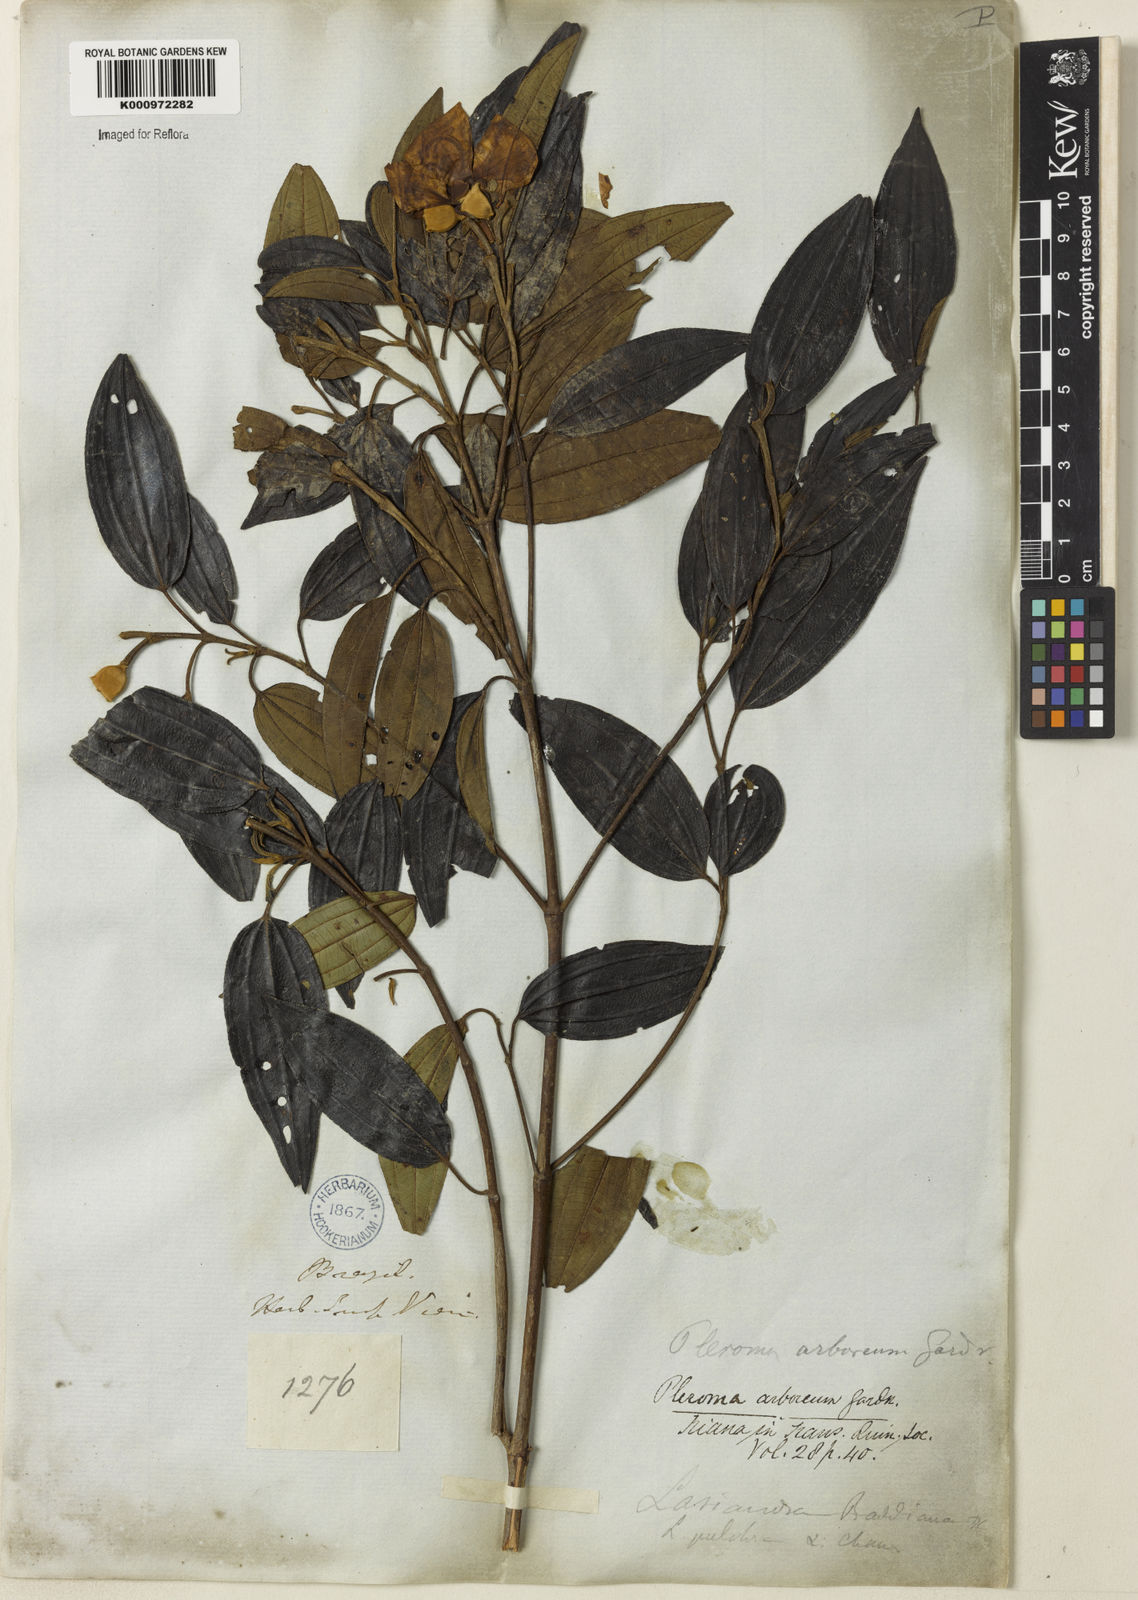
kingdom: Plantae
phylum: Tracheophyta
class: Magnoliopsida
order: Myrtales
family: Melastomataceae
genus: Pleroma
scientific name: Pleroma arboreum
